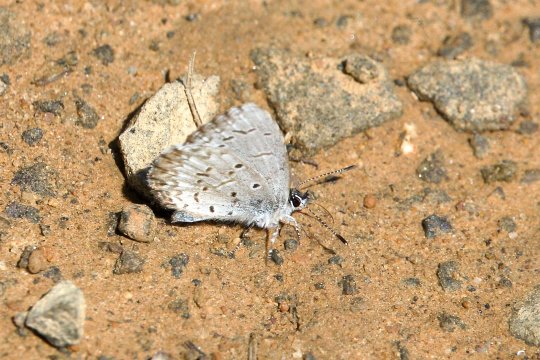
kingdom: Animalia
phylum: Arthropoda
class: Insecta
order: Lepidoptera
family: Lycaenidae
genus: Celastrina
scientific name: Celastrina lucia
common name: Northern Spring Azure
